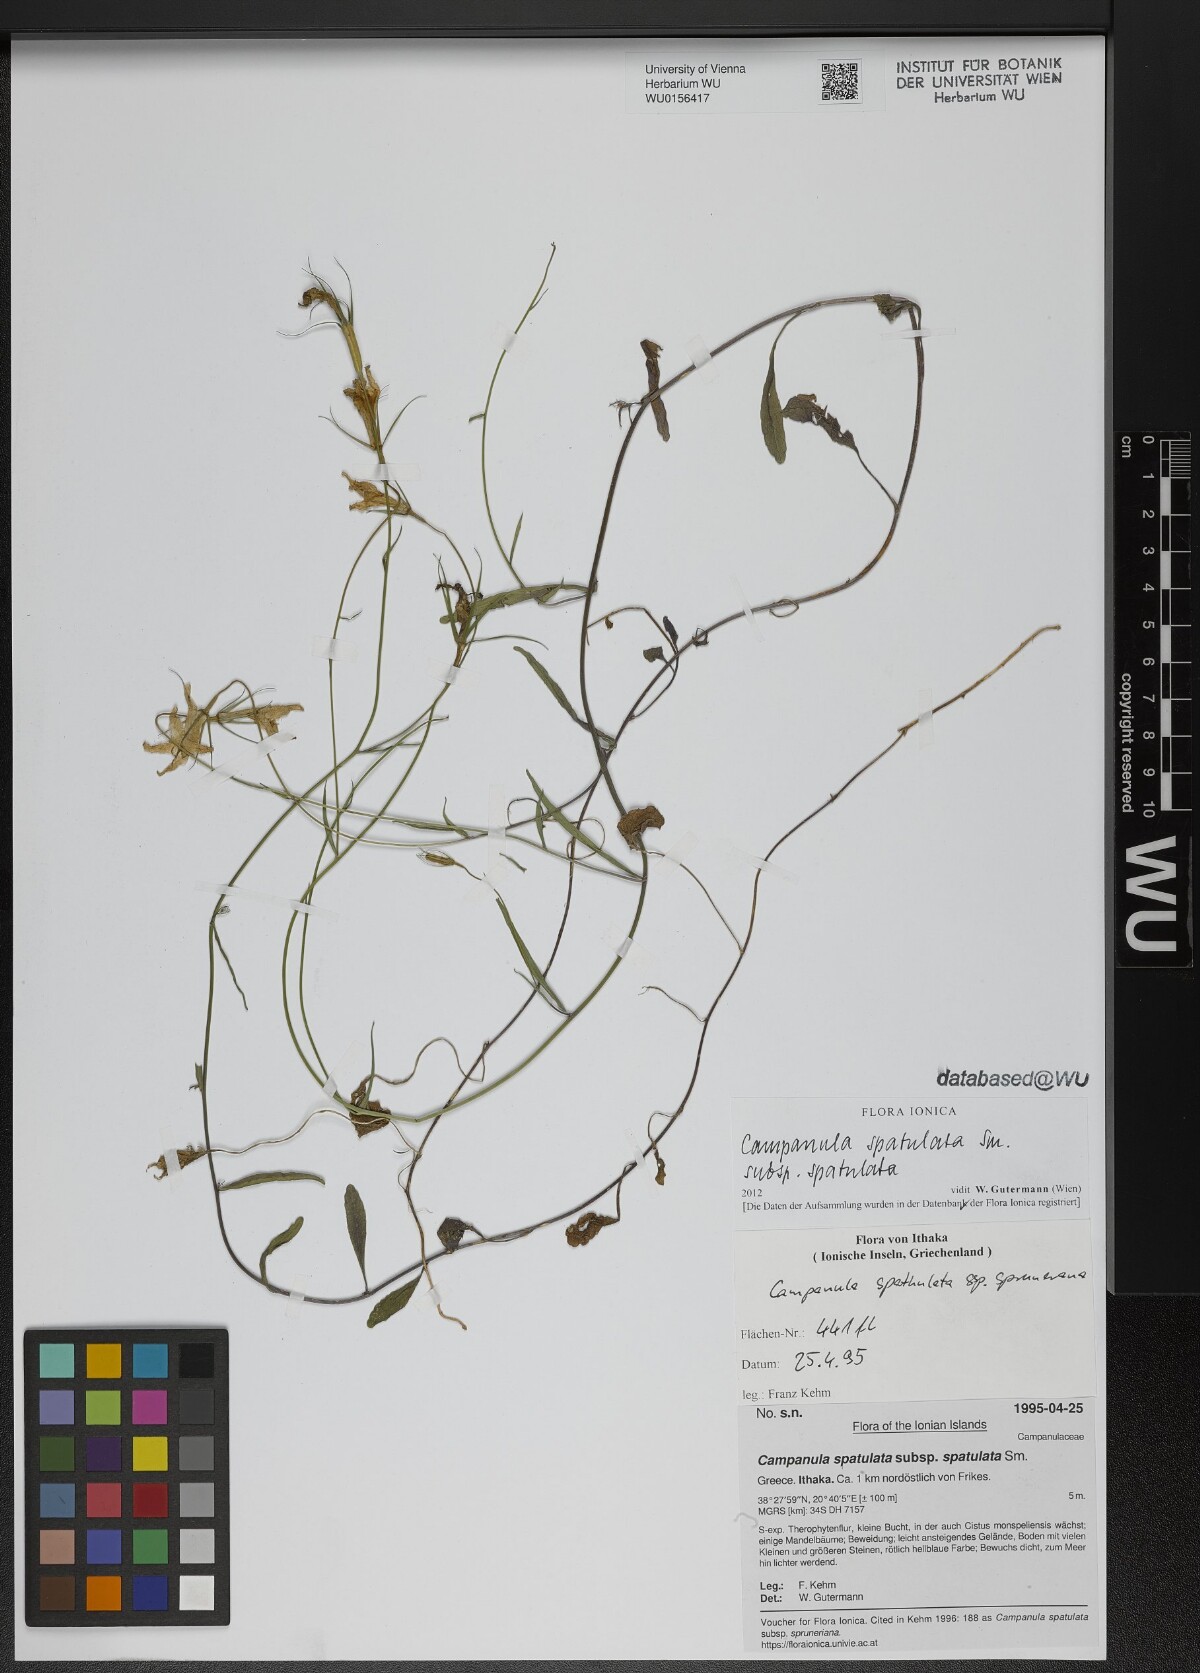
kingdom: Plantae
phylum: Tracheophyta
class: Magnoliopsida
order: Asterales
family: Campanulaceae
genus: Campanula
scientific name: Campanula spatulata
